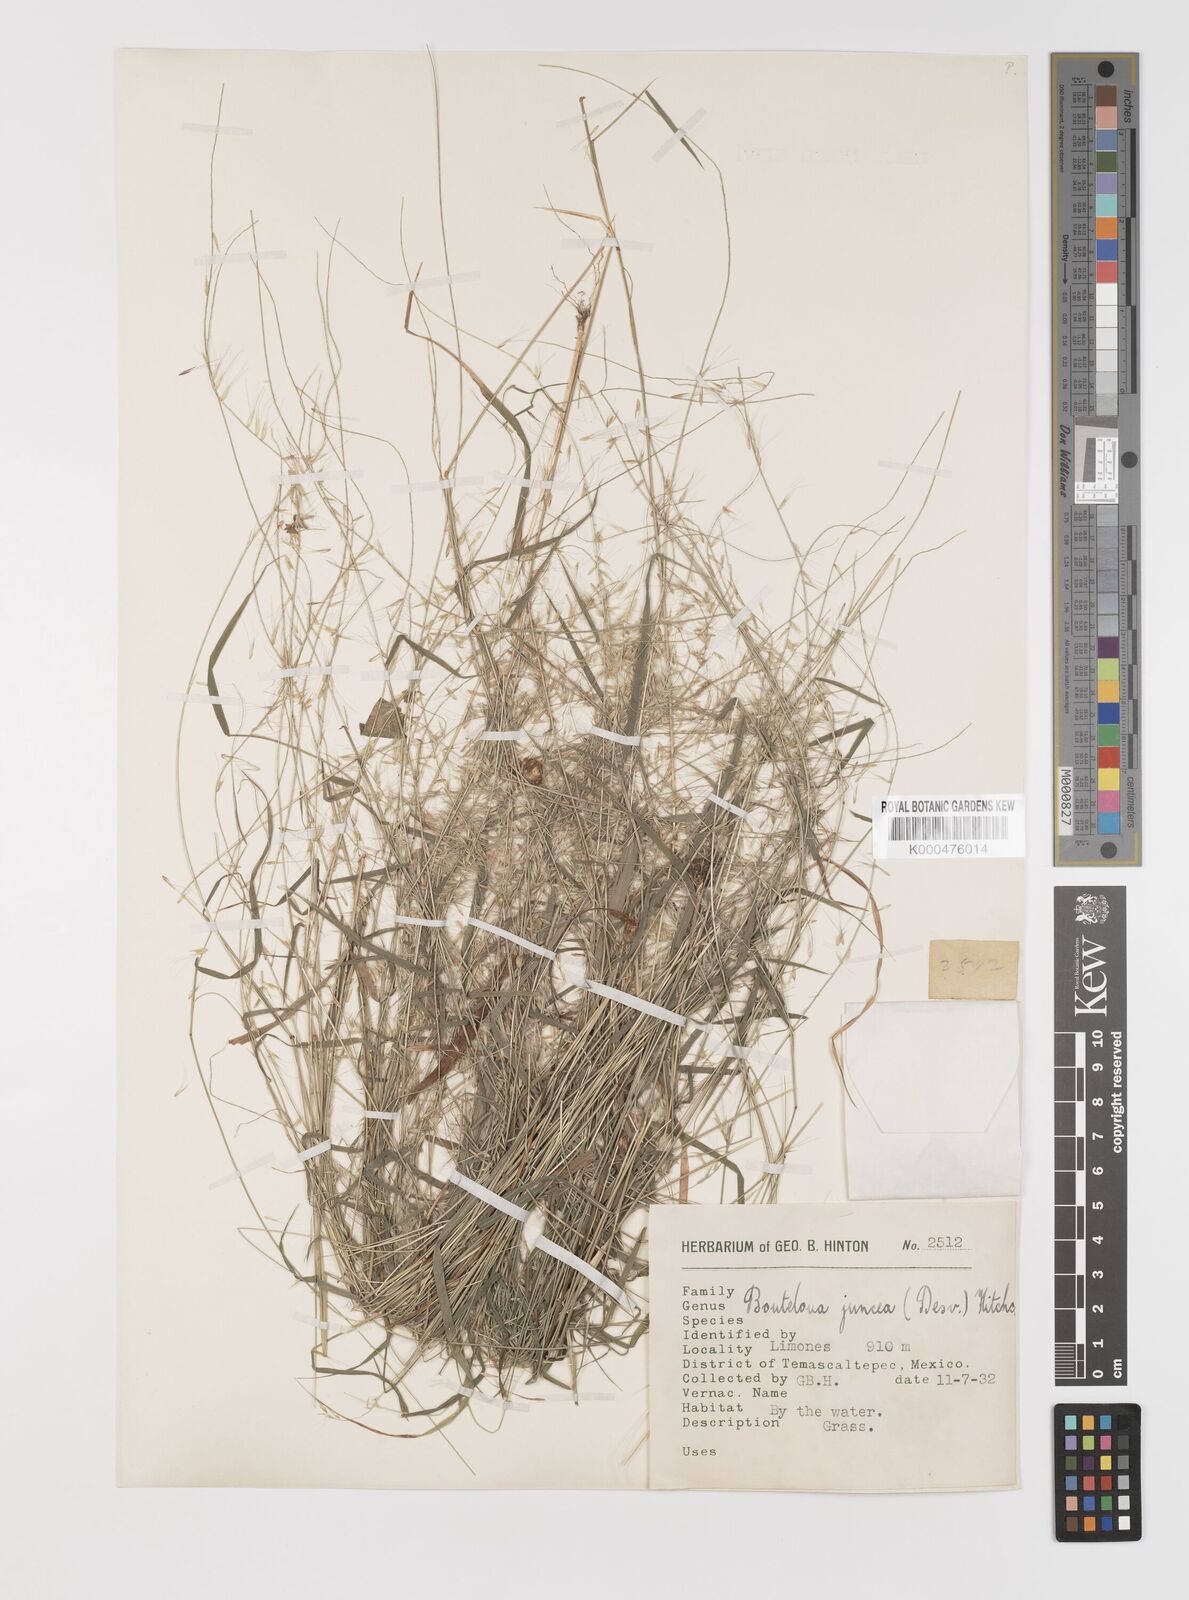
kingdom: Plantae
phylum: Tracheophyta
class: Liliopsida
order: Poales
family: Poaceae
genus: Bouteloua
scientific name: Bouteloua triaena
